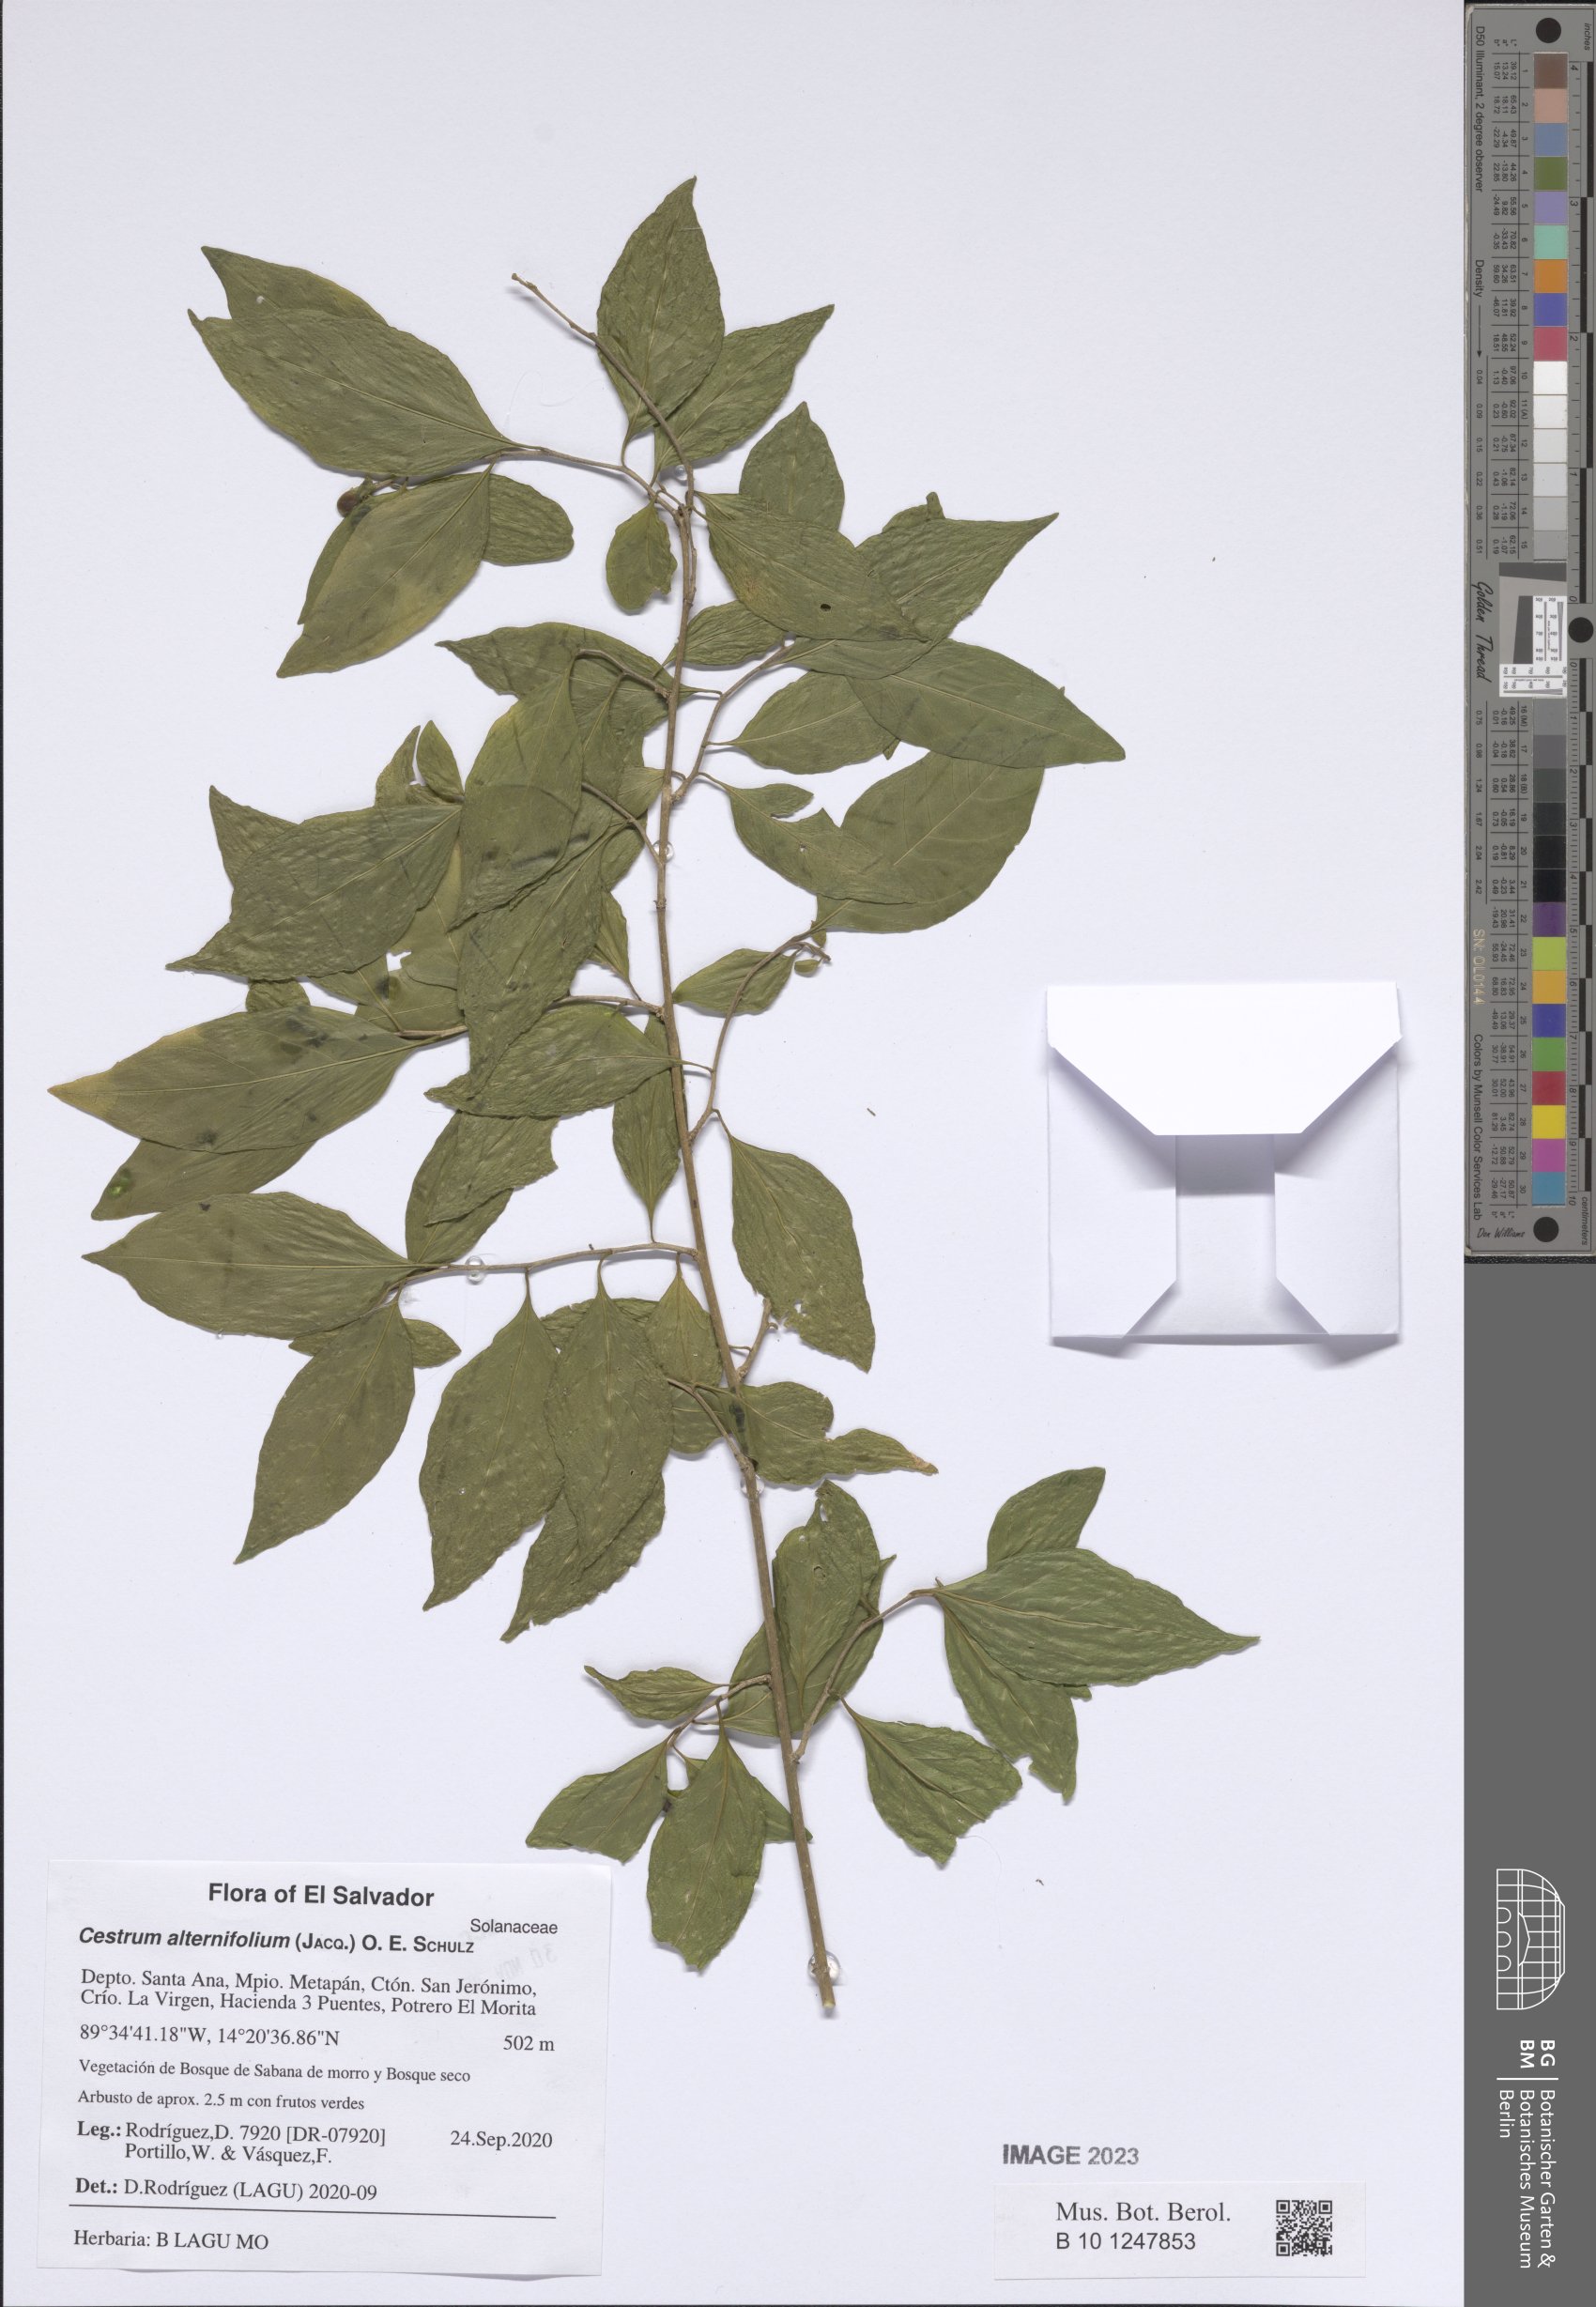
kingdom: Plantae
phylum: Tracheophyta
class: Magnoliopsida
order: Solanales
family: Solanaceae
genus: Cestrum
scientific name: Cestrum alternifolium
